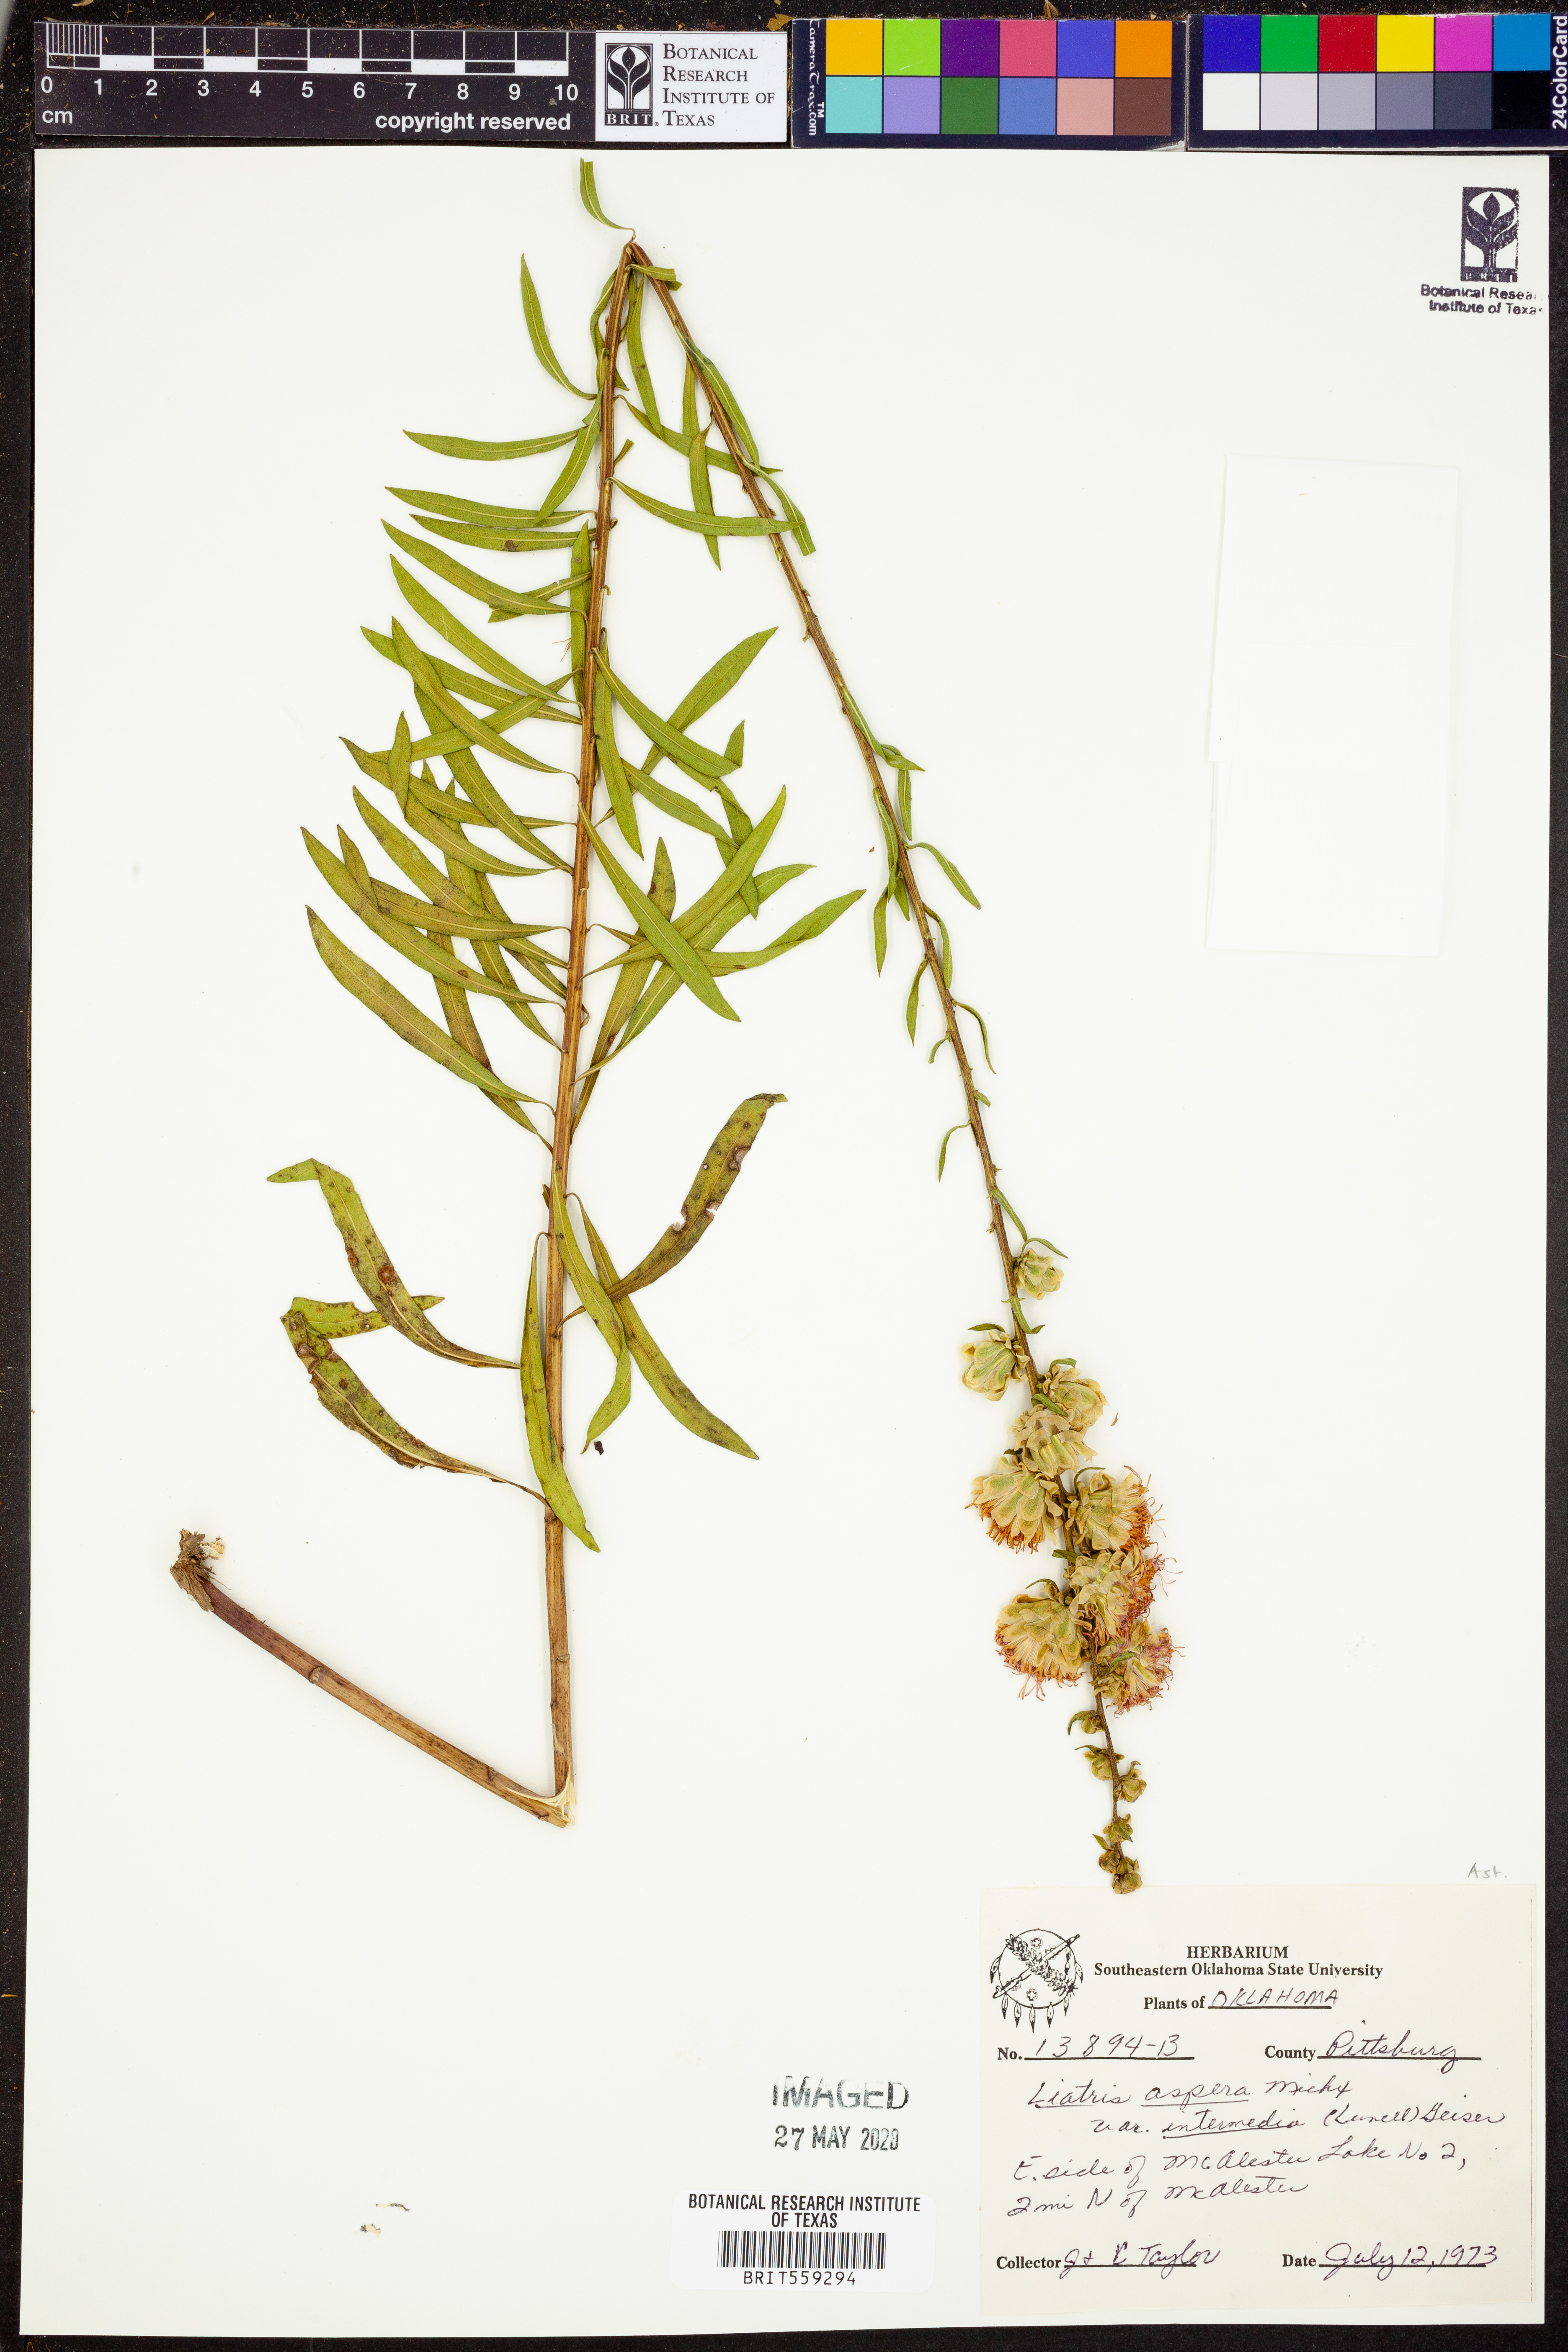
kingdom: Plantae
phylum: Tracheophyta
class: Magnoliopsida
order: Asterales
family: Asteraceae
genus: Liatris
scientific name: Liatris aspera
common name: Lacerate blazing-star
